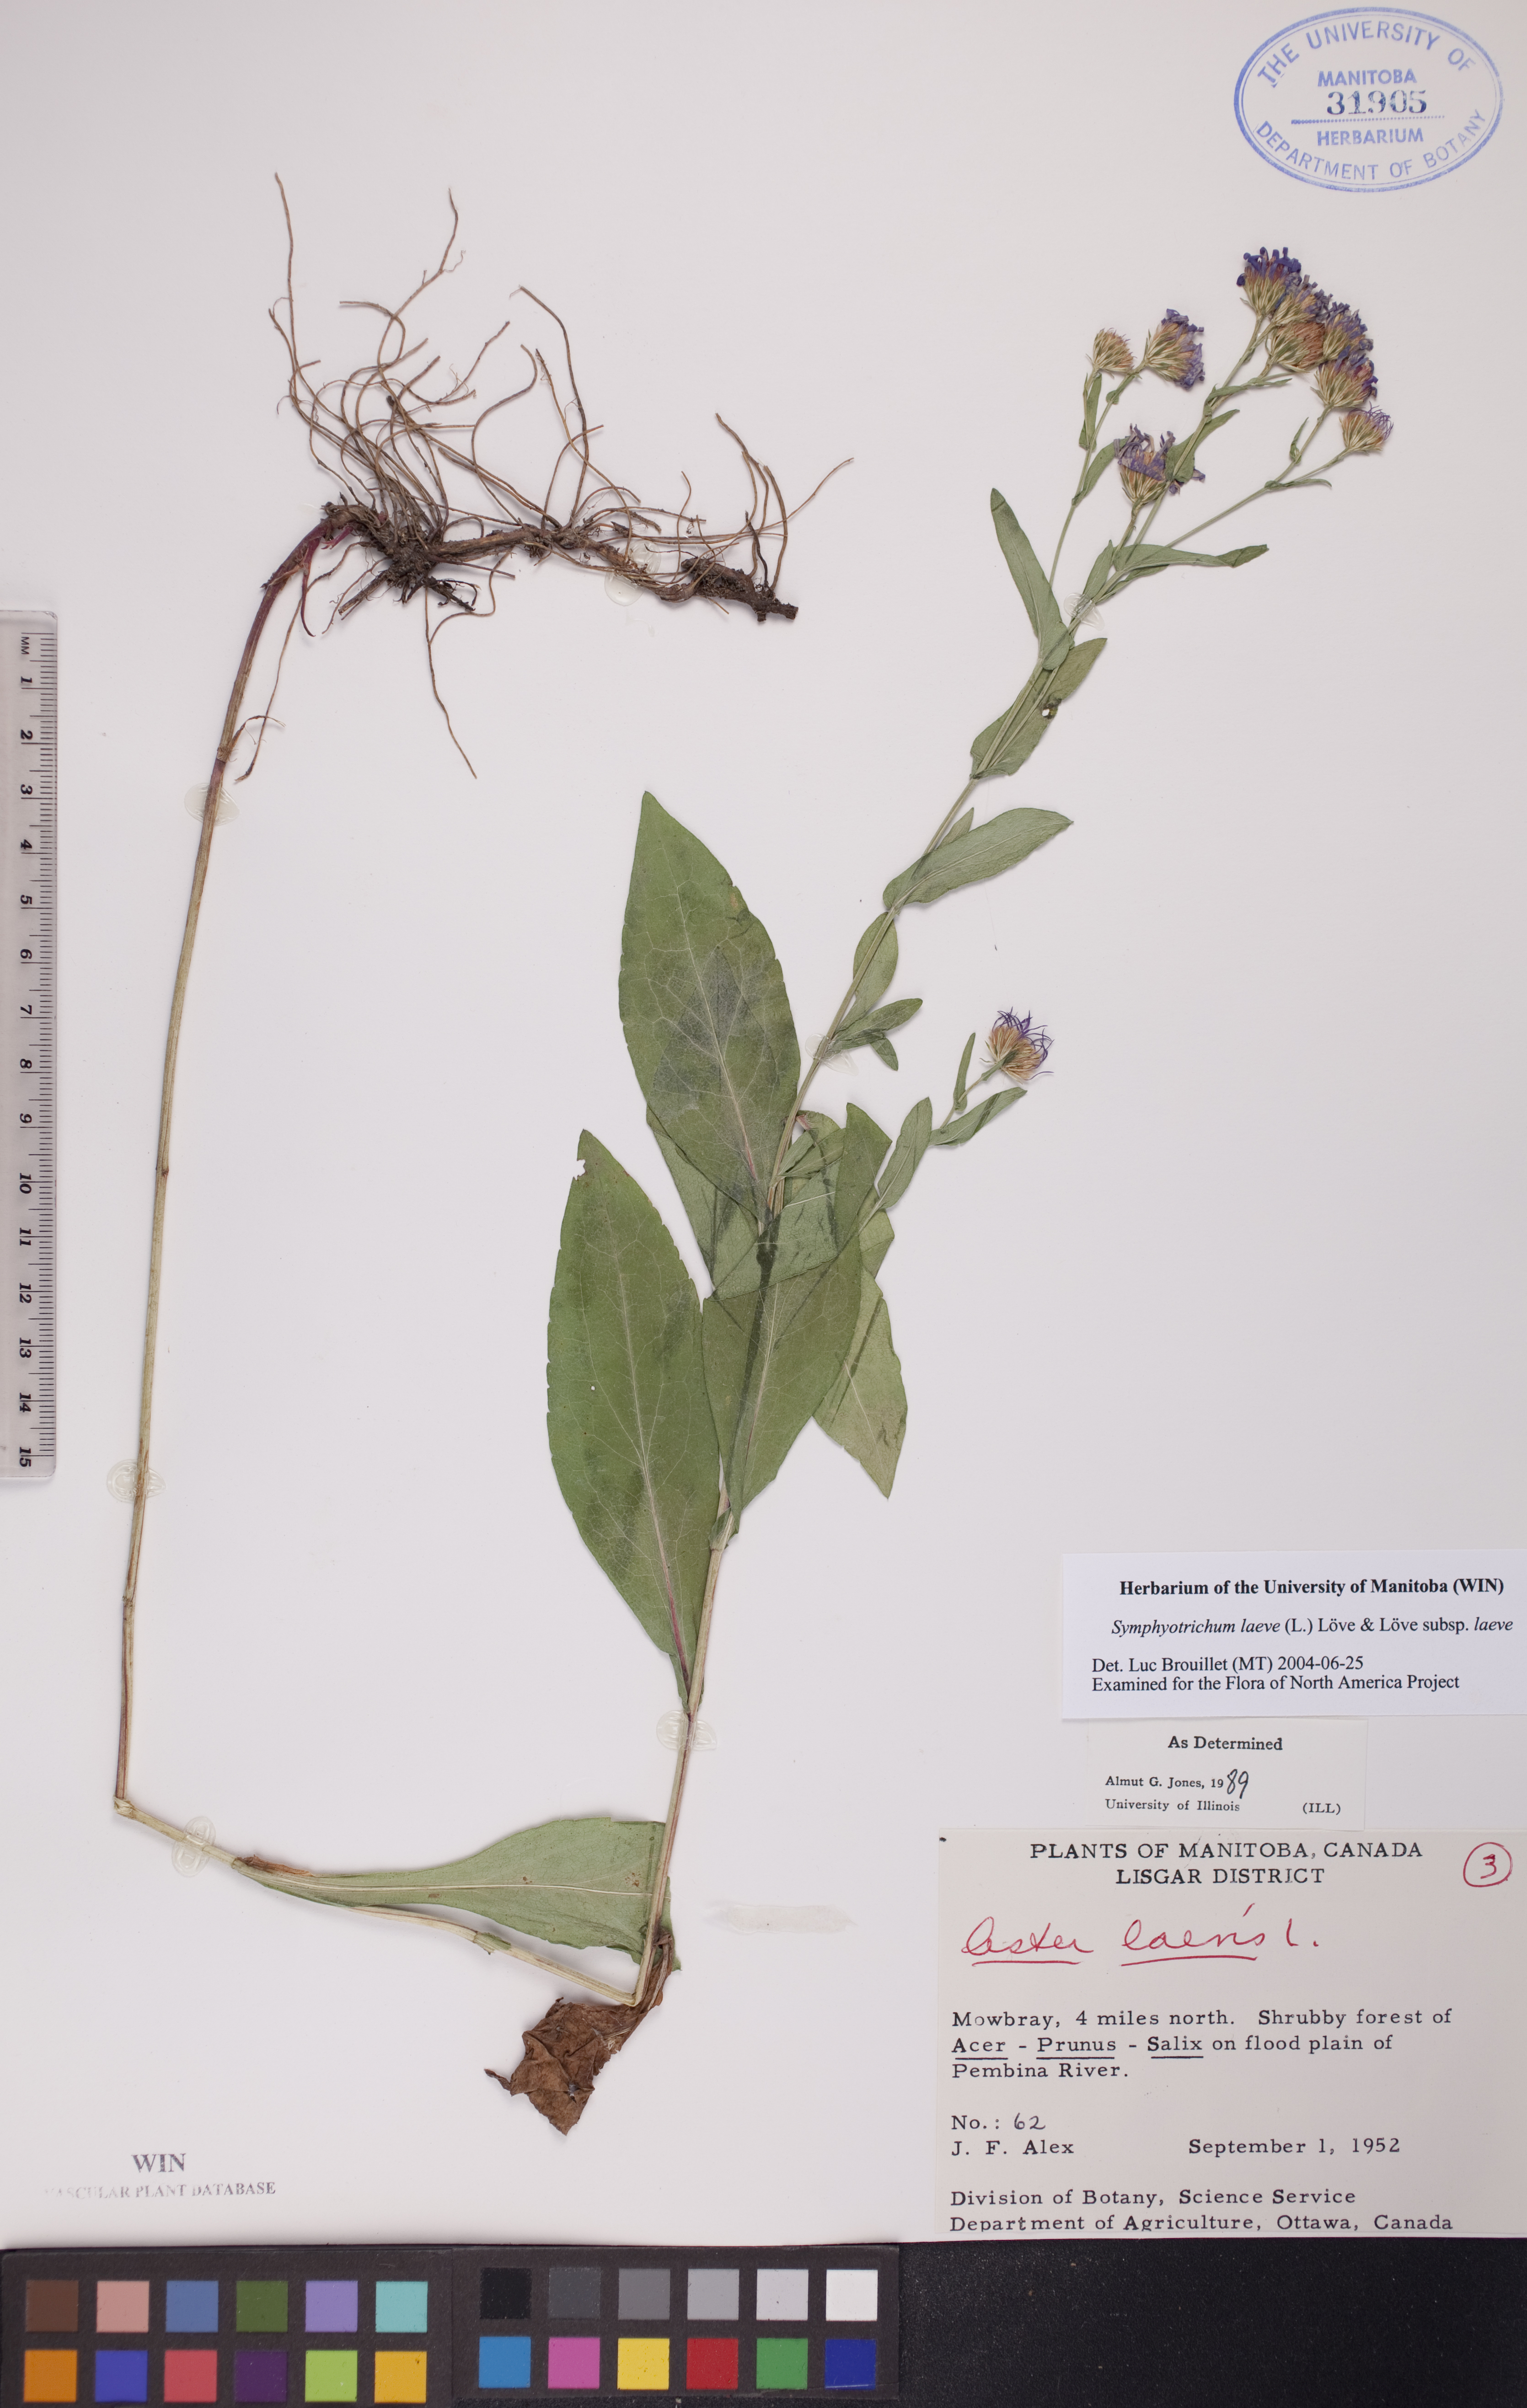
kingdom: Plantae
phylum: Tracheophyta
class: Magnoliopsida
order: Asterales
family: Asteraceae
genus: Symphyotrichum
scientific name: Symphyotrichum laeve
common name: Glaucous aster
